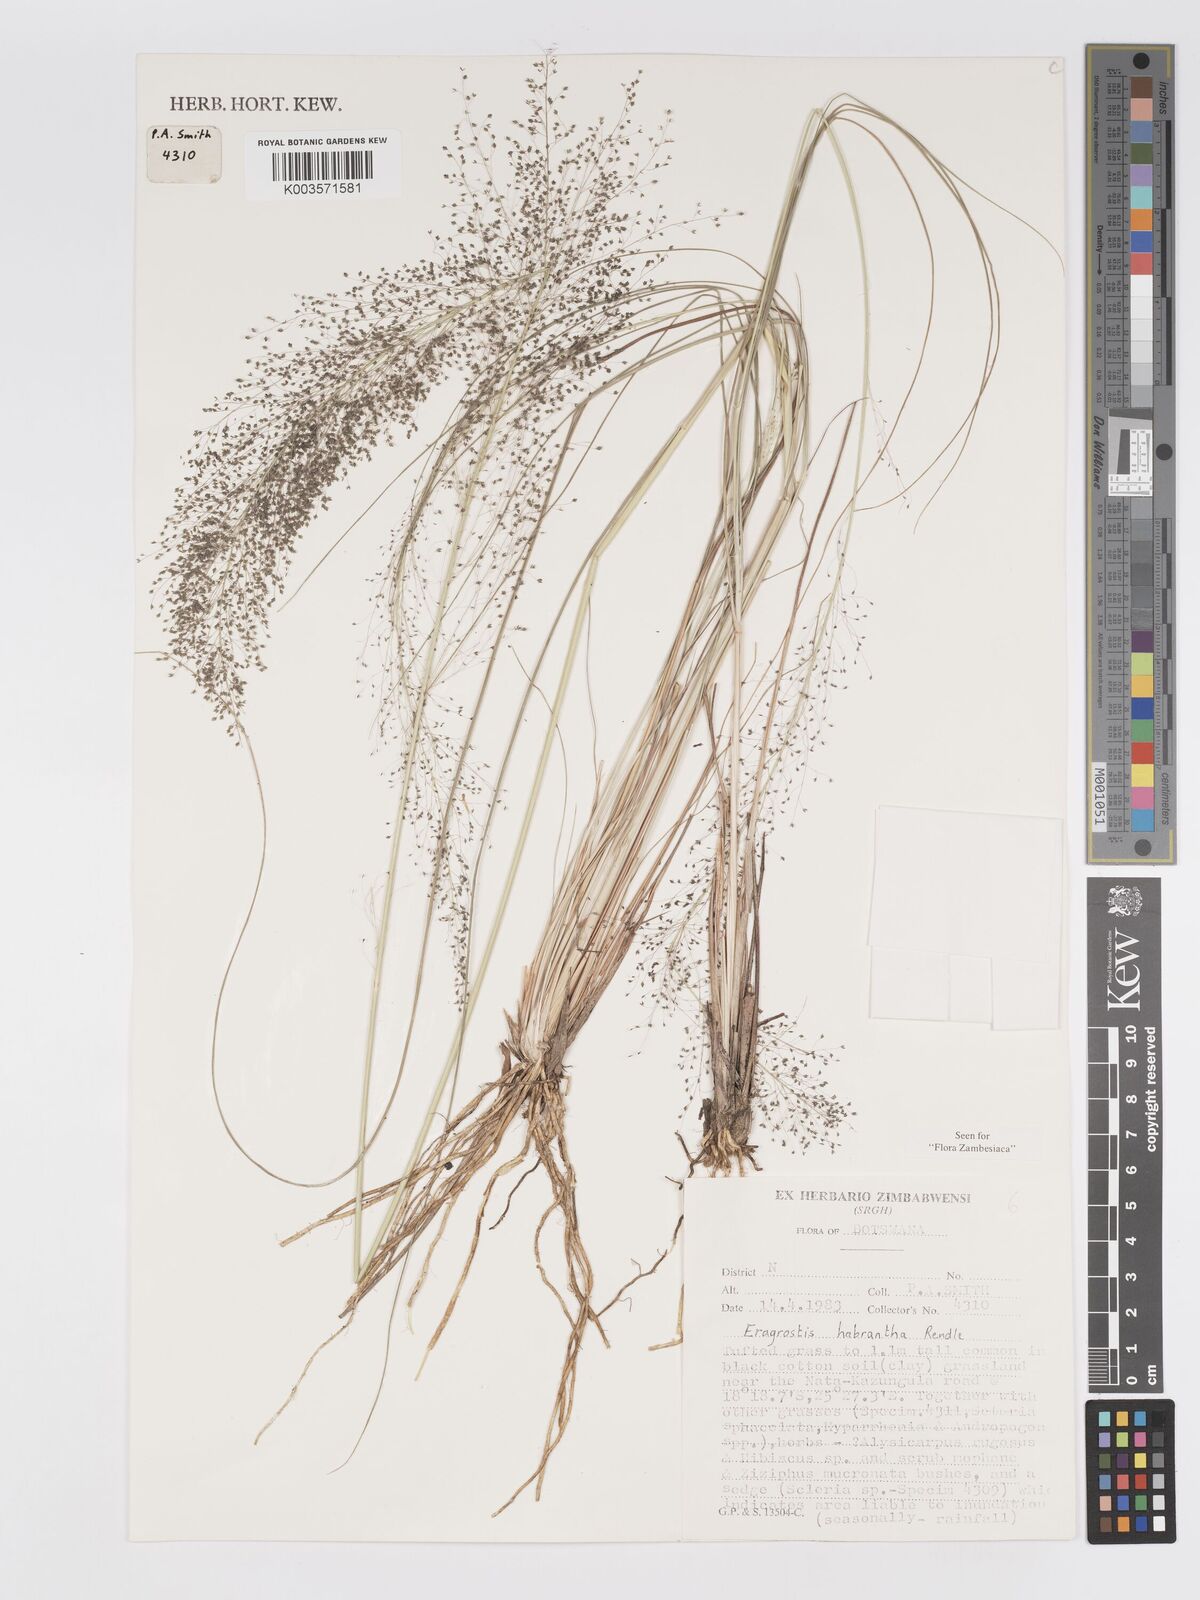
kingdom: Plantae
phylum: Tracheophyta
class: Liliopsida
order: Poales
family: Poaceae
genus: Eragrostis
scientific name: Eragrostis habrantha
